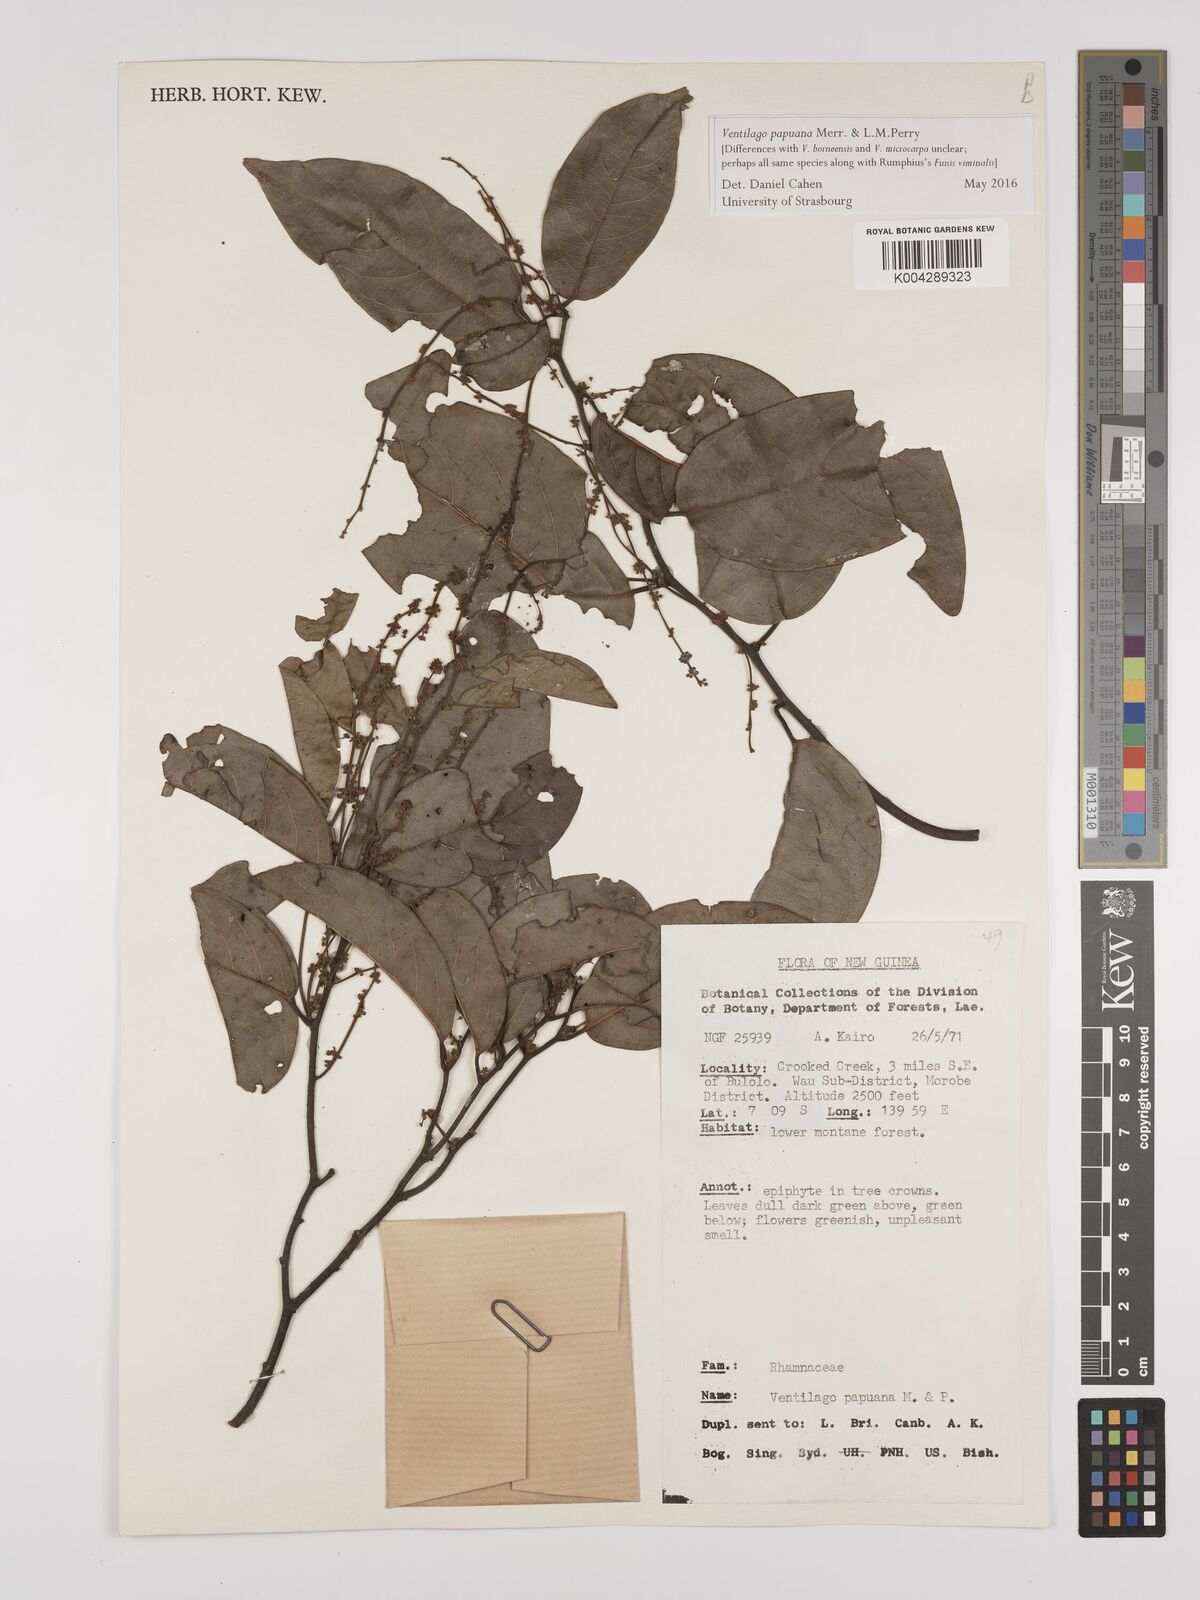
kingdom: Plantae
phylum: Tracheophyta
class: Magnoliopsida
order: Rosales
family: Rhamnaceae
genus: Ventilago
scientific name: Ventilago papuana
